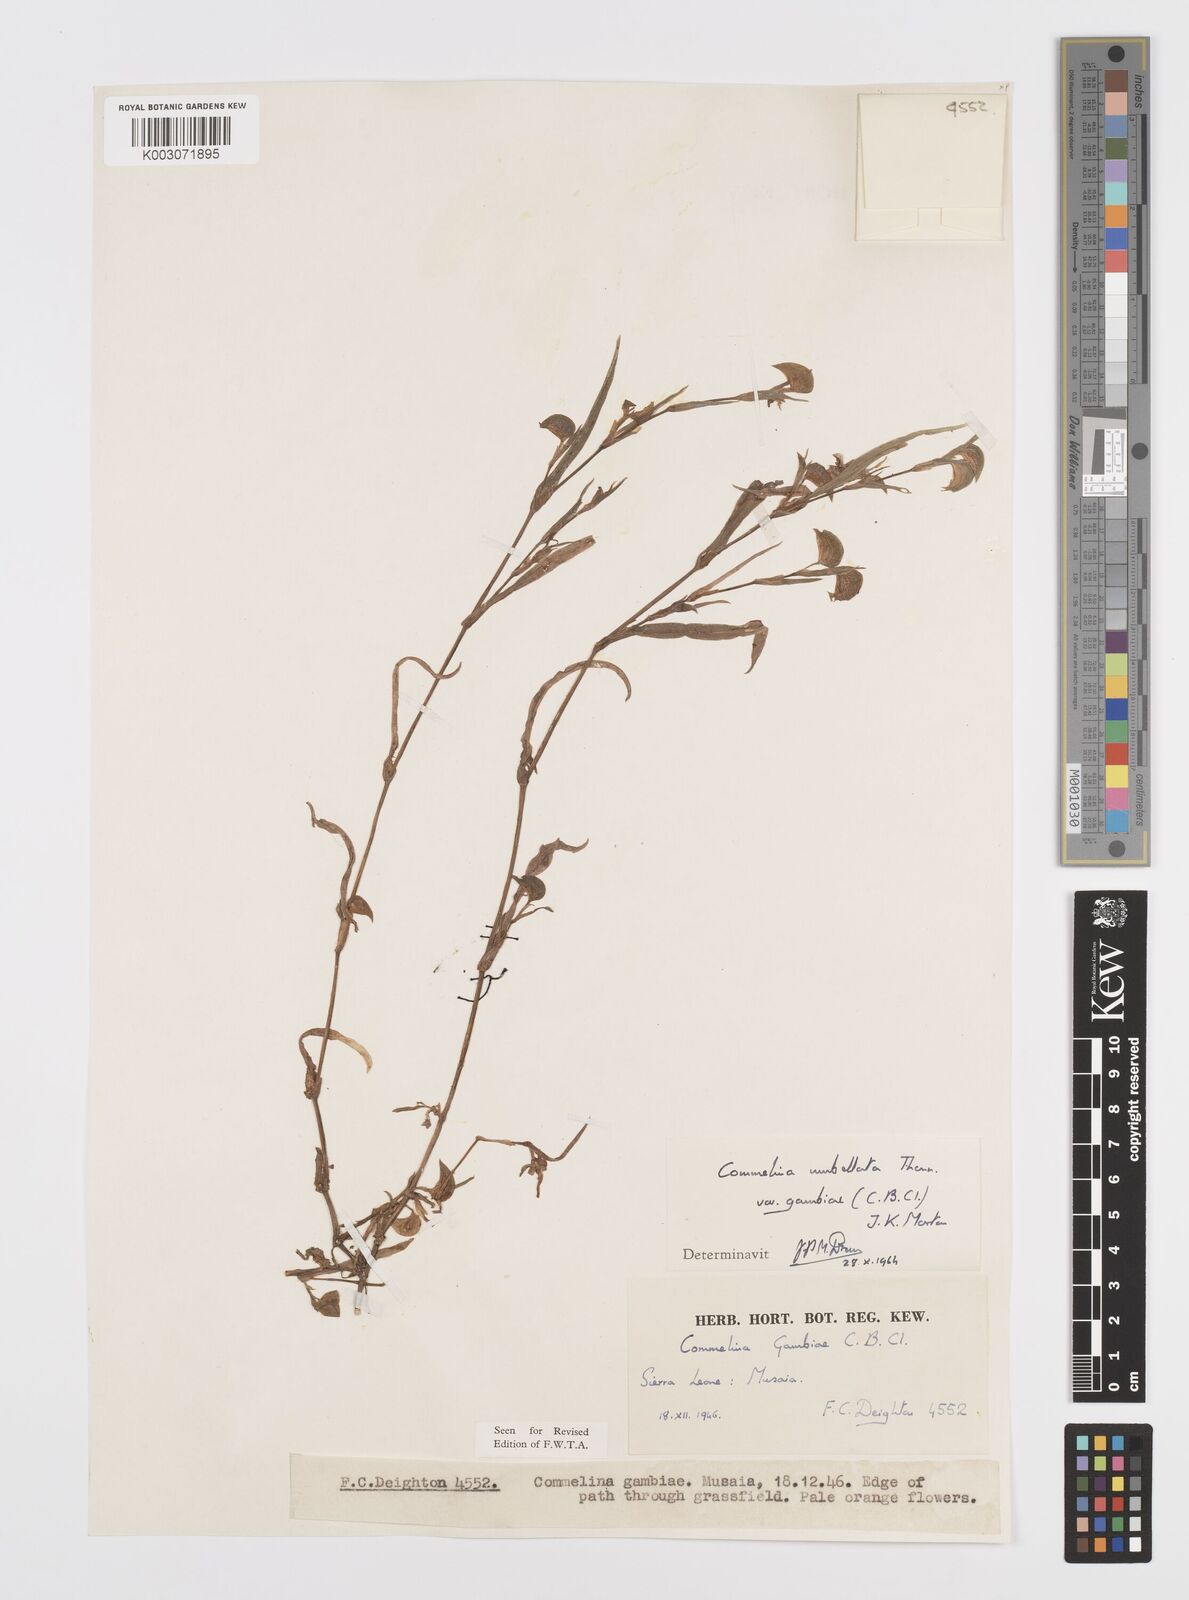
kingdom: Plantae
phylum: Tracheophyta
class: Liliopsida
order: Commelinales
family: Commelinaceae
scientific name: Commelinaceae
